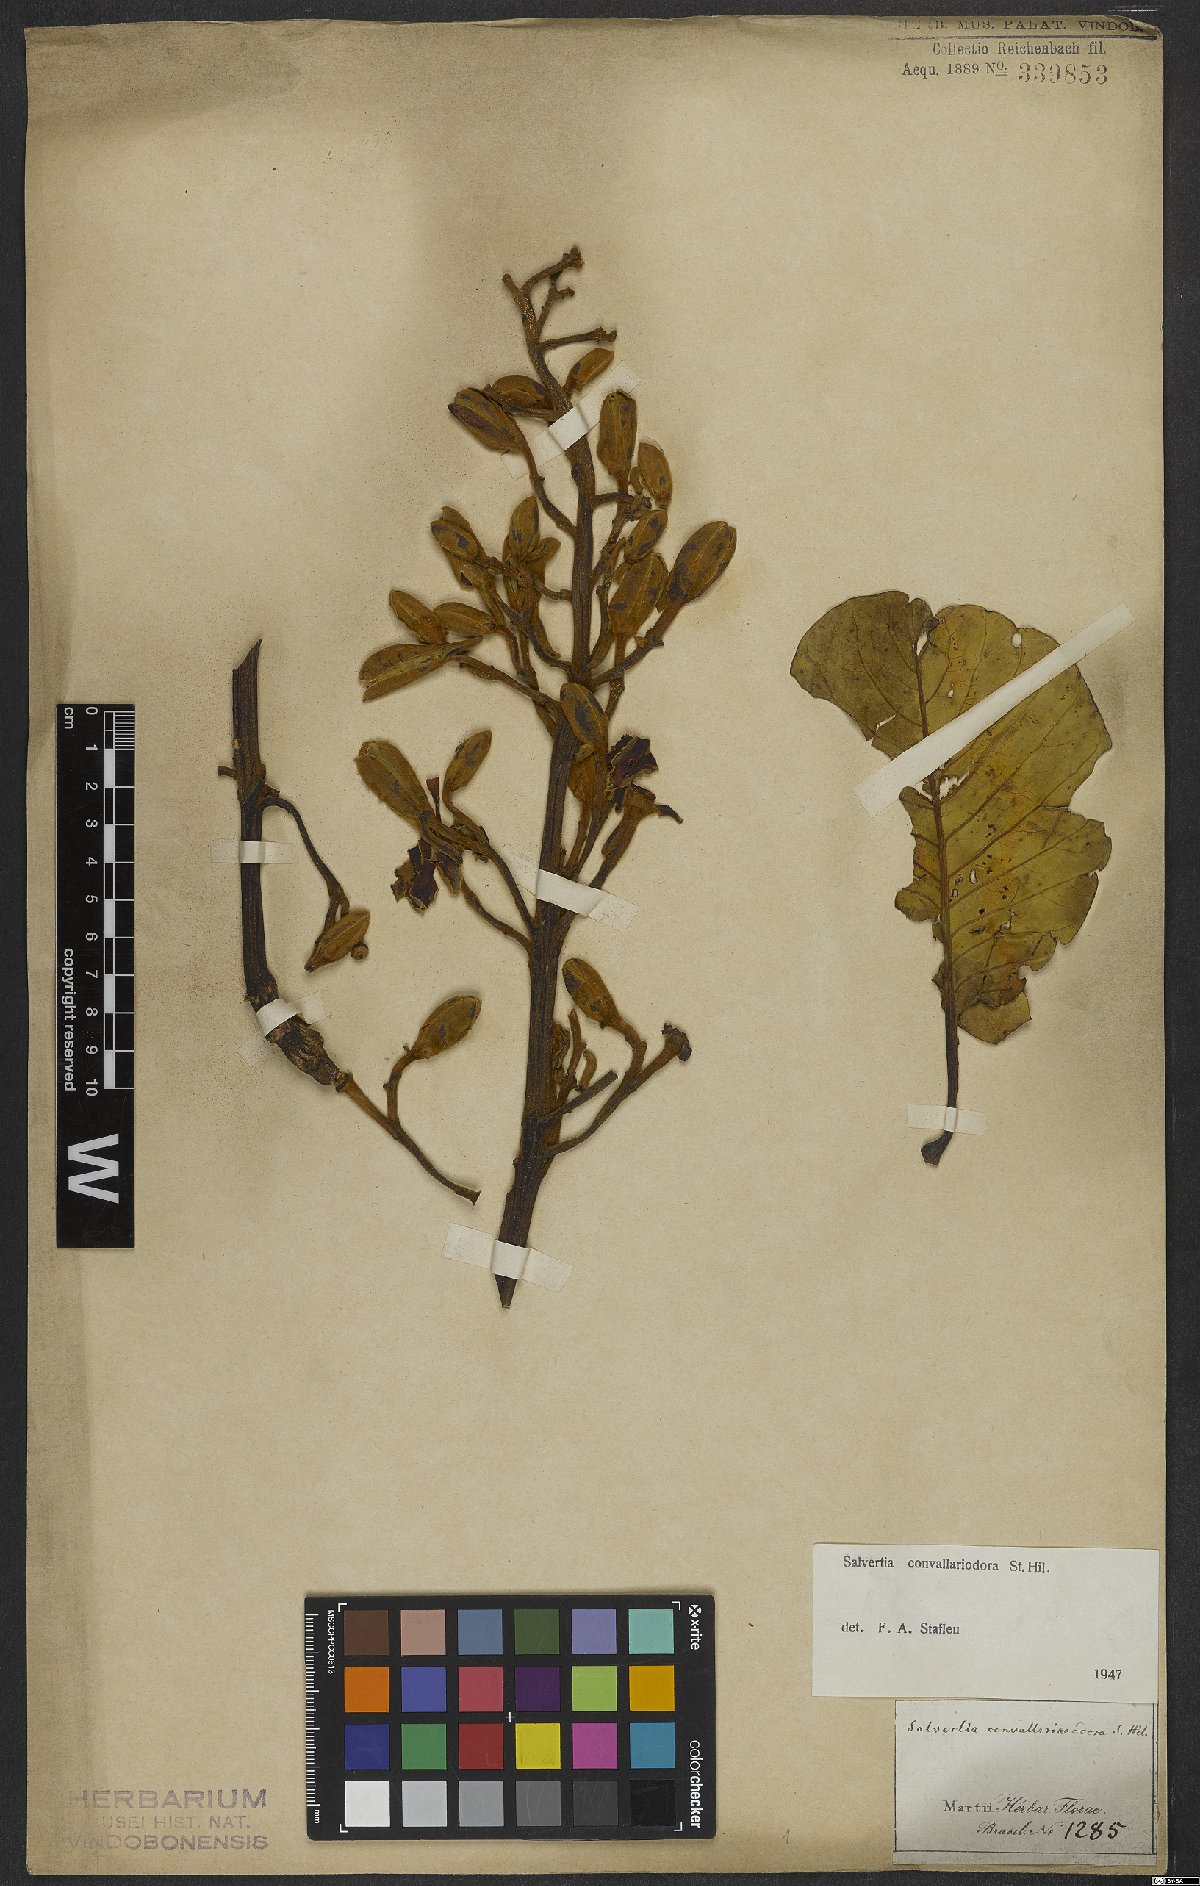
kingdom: Plantae
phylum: Tracheophyta
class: Magnoliopsida
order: Myrtales
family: Vochysiaceae
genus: Salvertia
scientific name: Salvertia convallariodora
